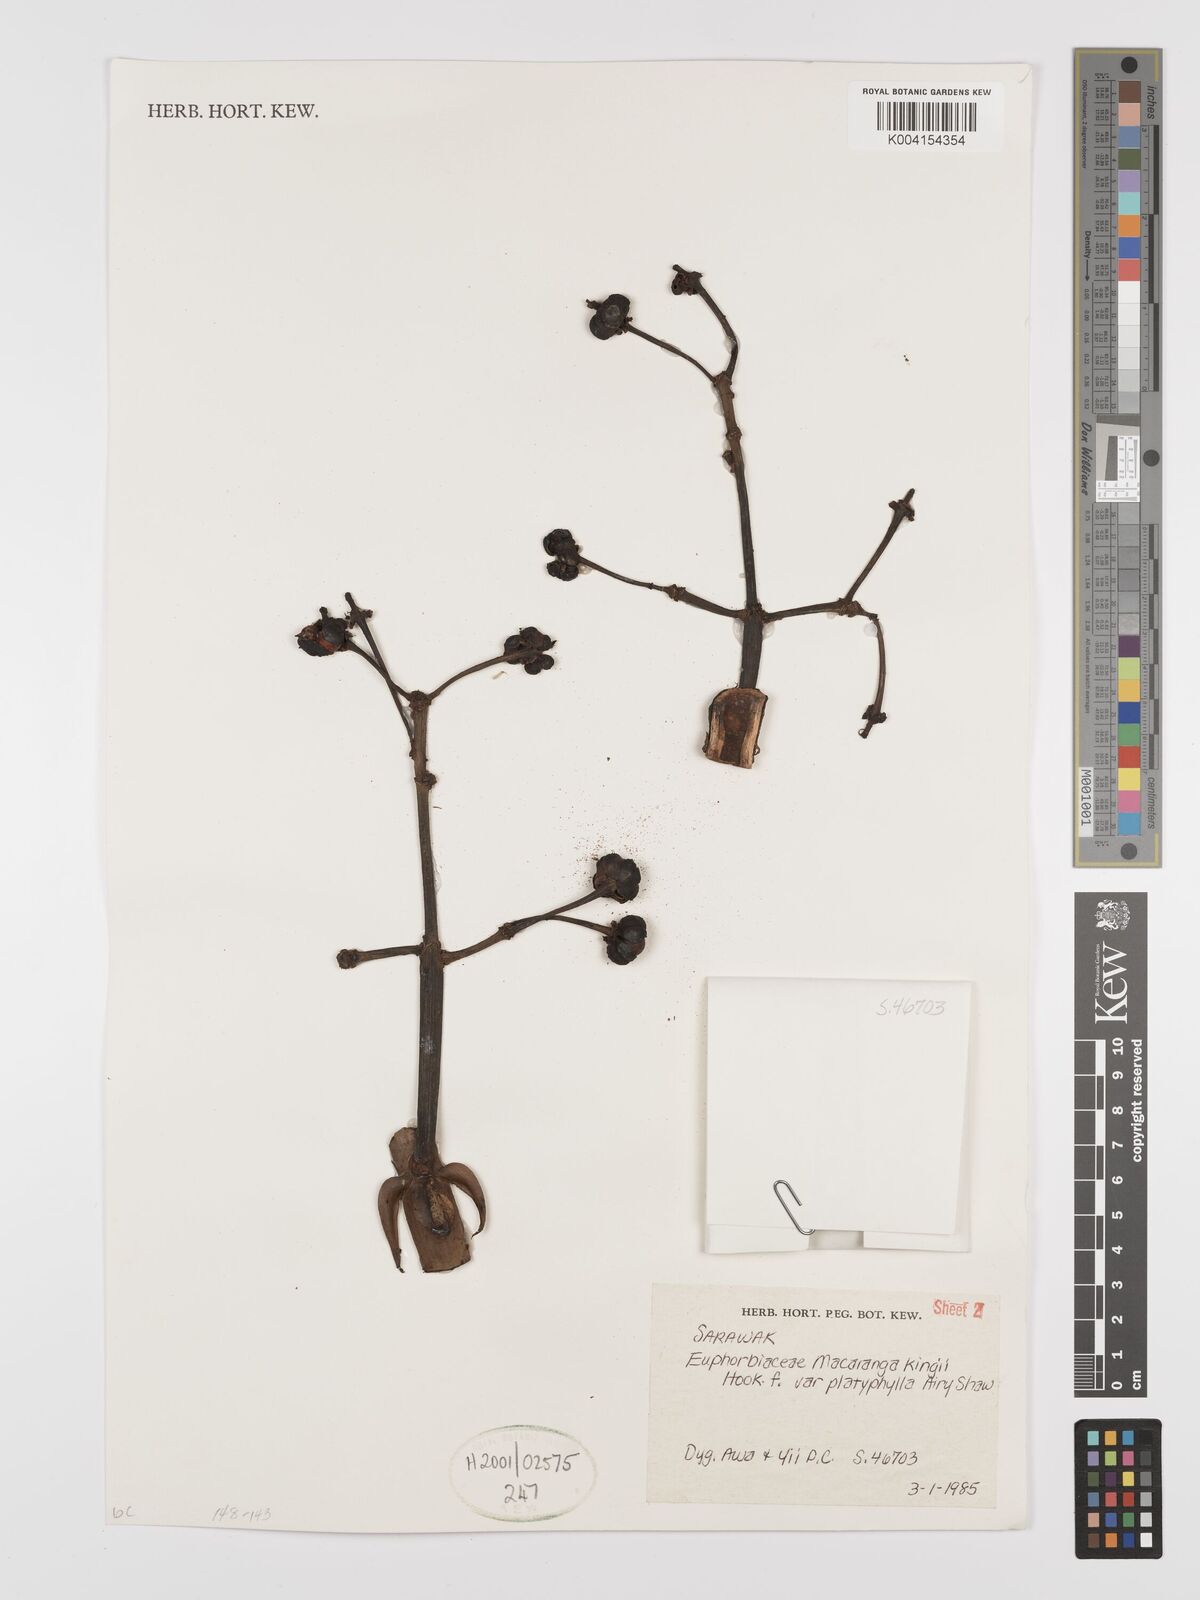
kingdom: Plantae
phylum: Tracheophyta
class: Magnoliopsida
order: Malpighiales
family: Euphorbiaceae
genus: Macaranga
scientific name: Macaranga umbrosa
